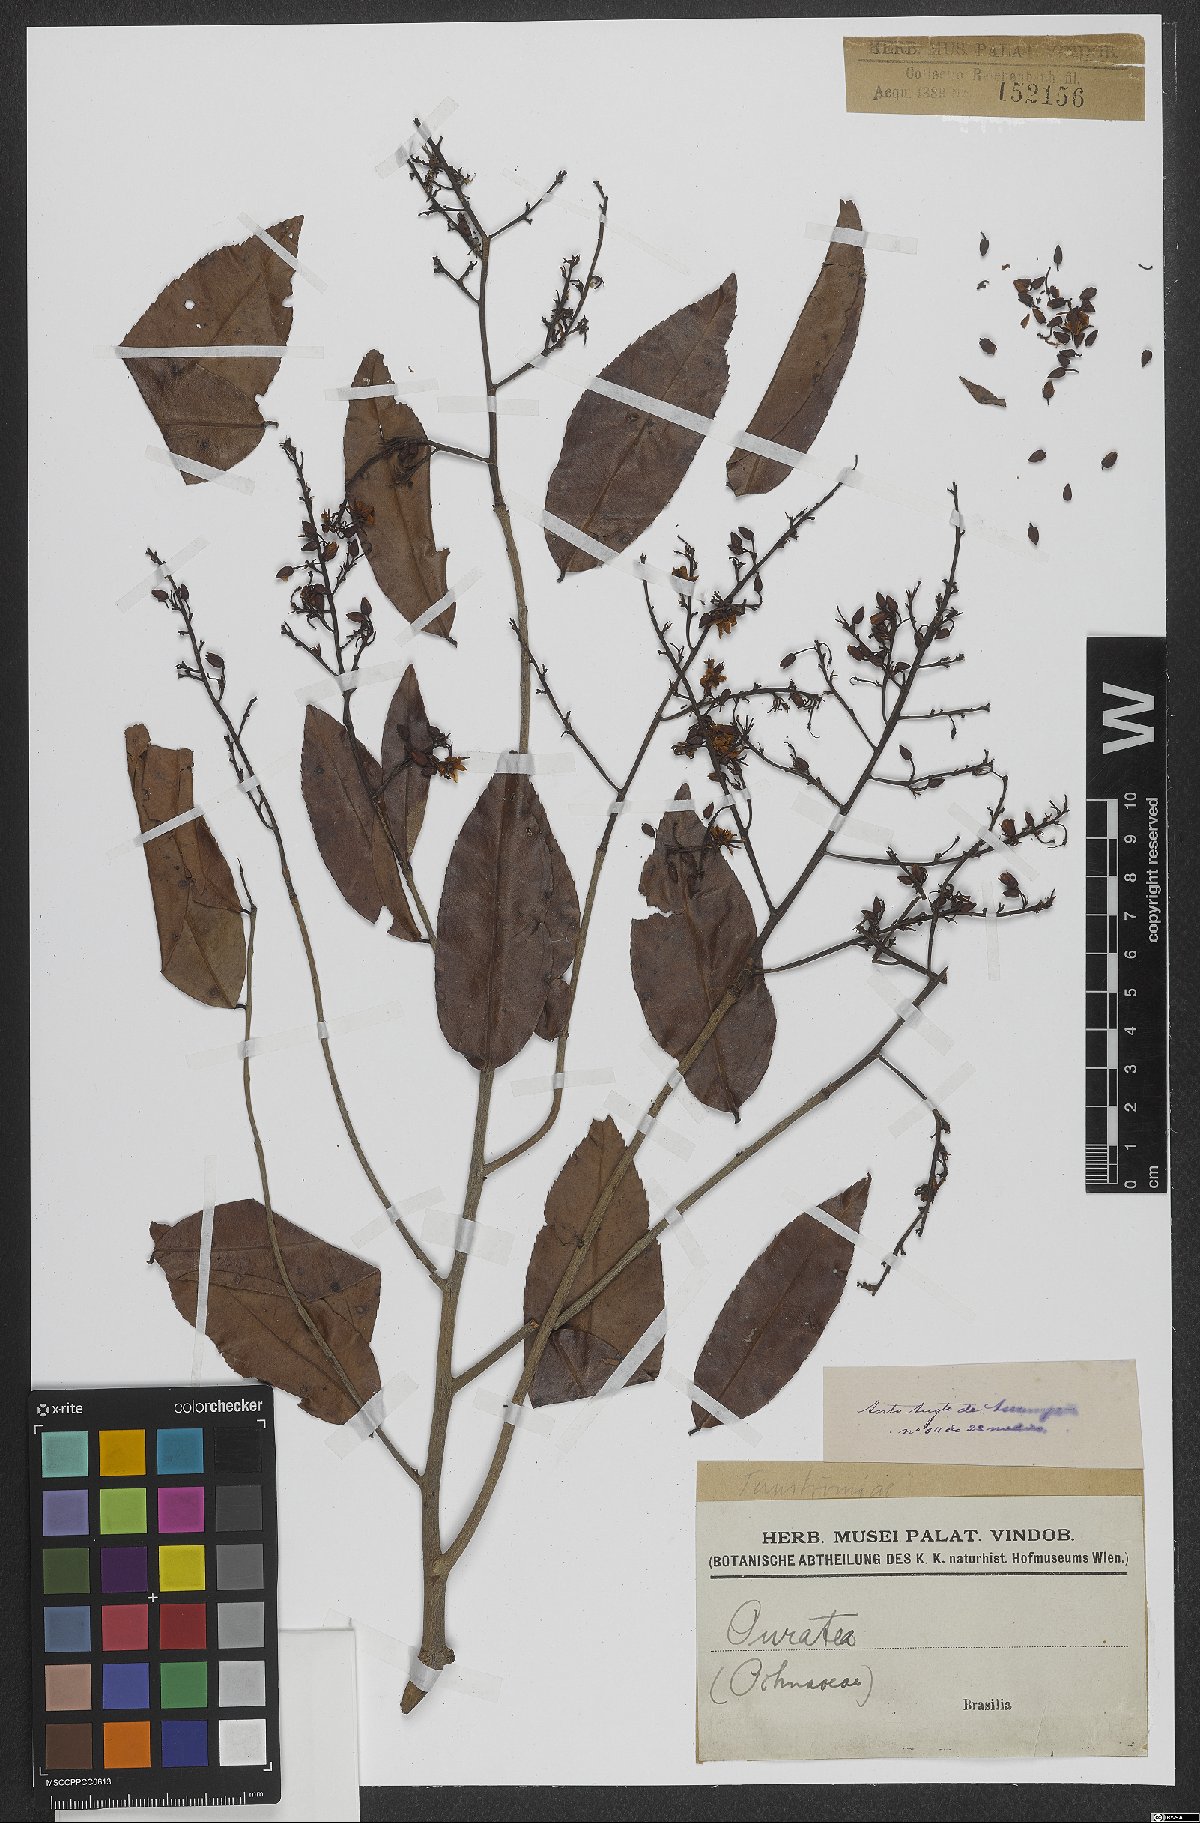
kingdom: Plantae
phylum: Tracheophyta
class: Magnoliopsida
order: Malpighiales
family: Ochnaceae
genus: Ouratea
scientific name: Ouratea
